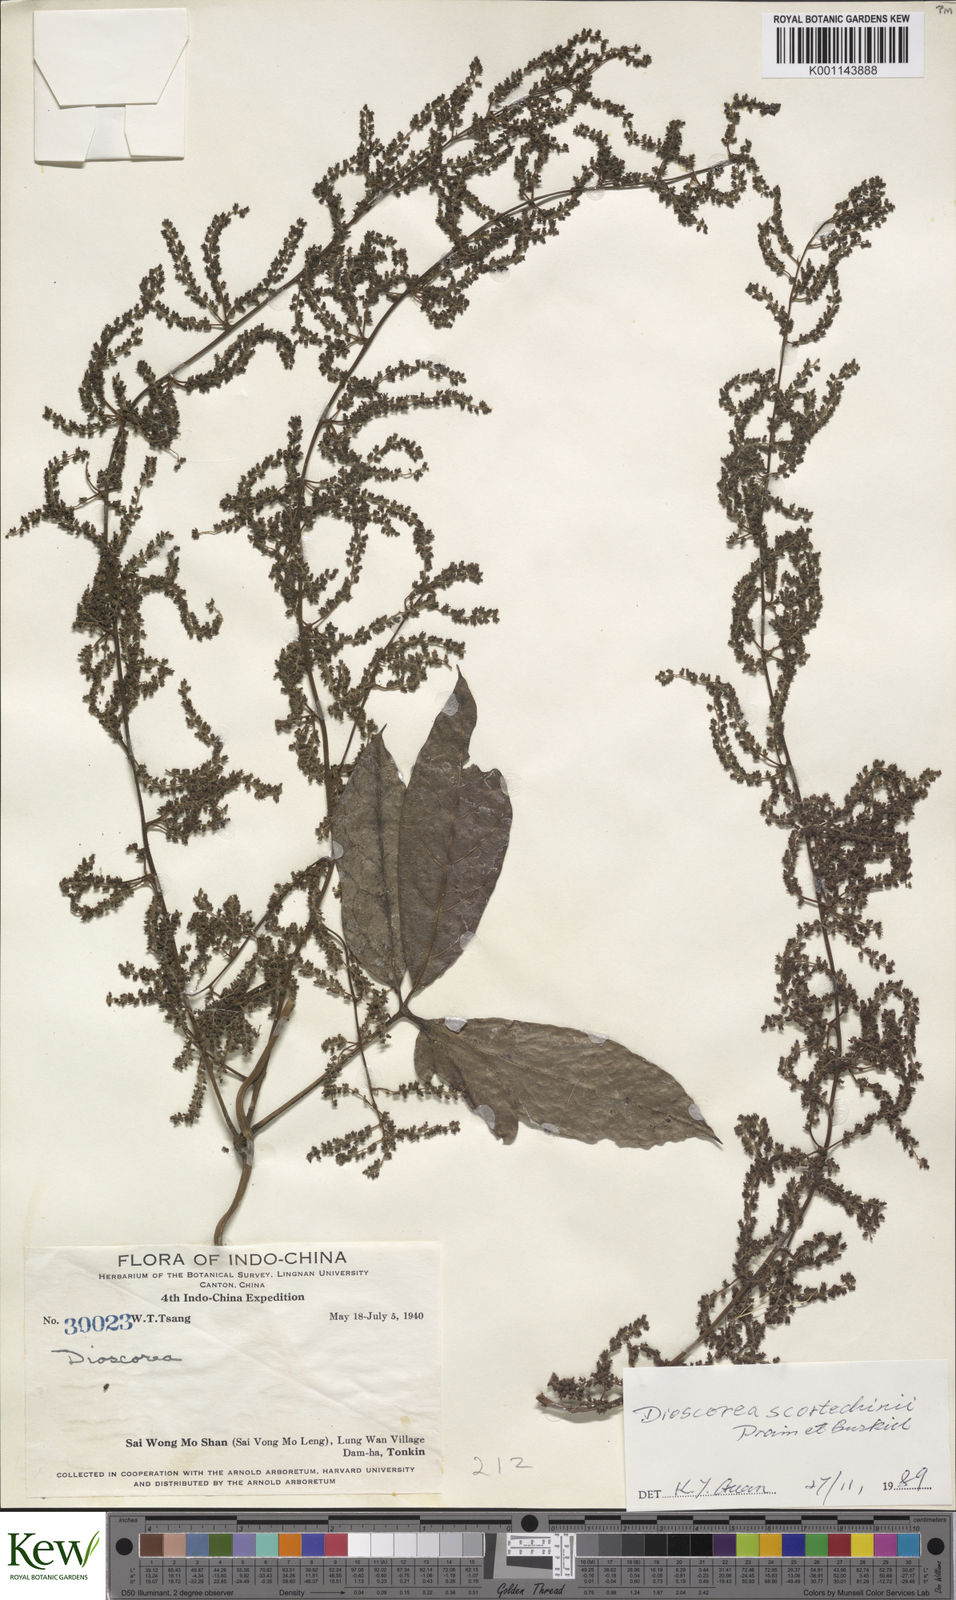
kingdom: Plantae
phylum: Tracheophyta
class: Liliopsida
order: Dioscoreales
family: Dioscoreaceae
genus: Dioscorea
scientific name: Dioscorea scortechinii
